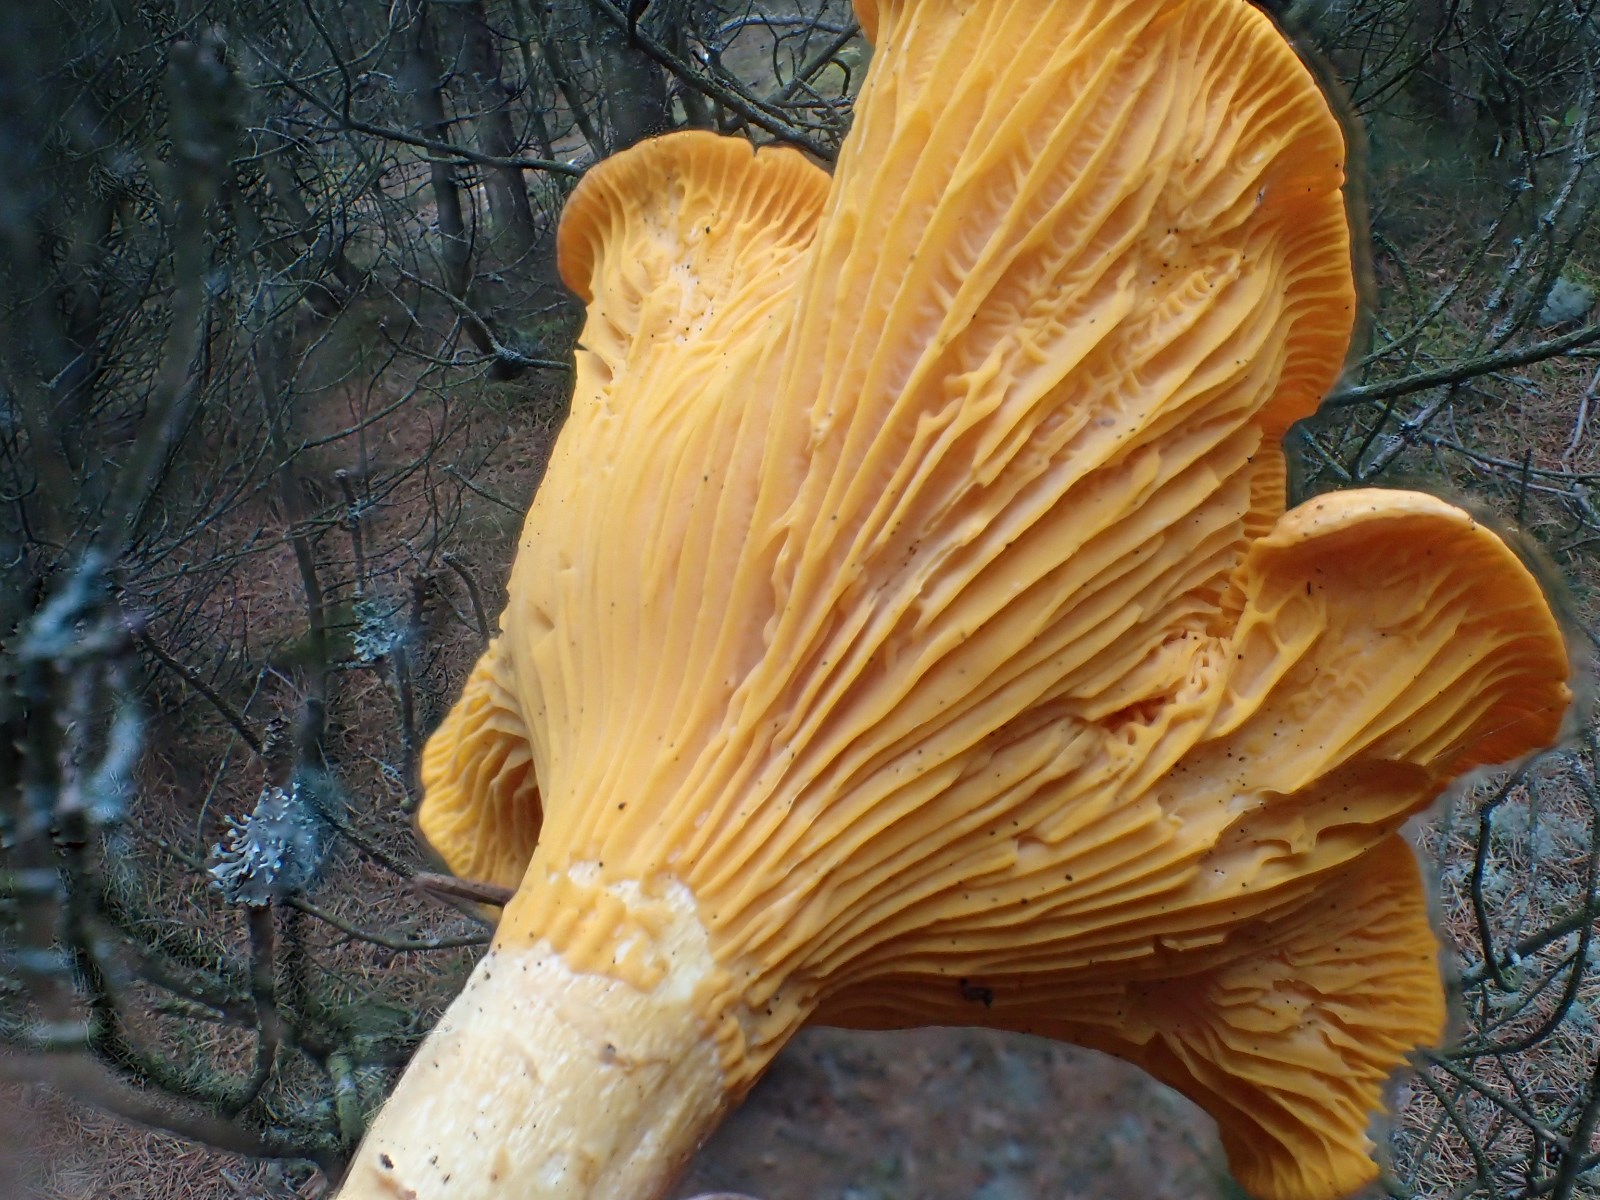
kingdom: Fungi
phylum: Basidiomycota
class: Agaricomycetes
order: Cantharellales
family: Hydnaceae
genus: Cantharellus
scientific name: Cantharellus cibarius
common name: almindelig kantarel
